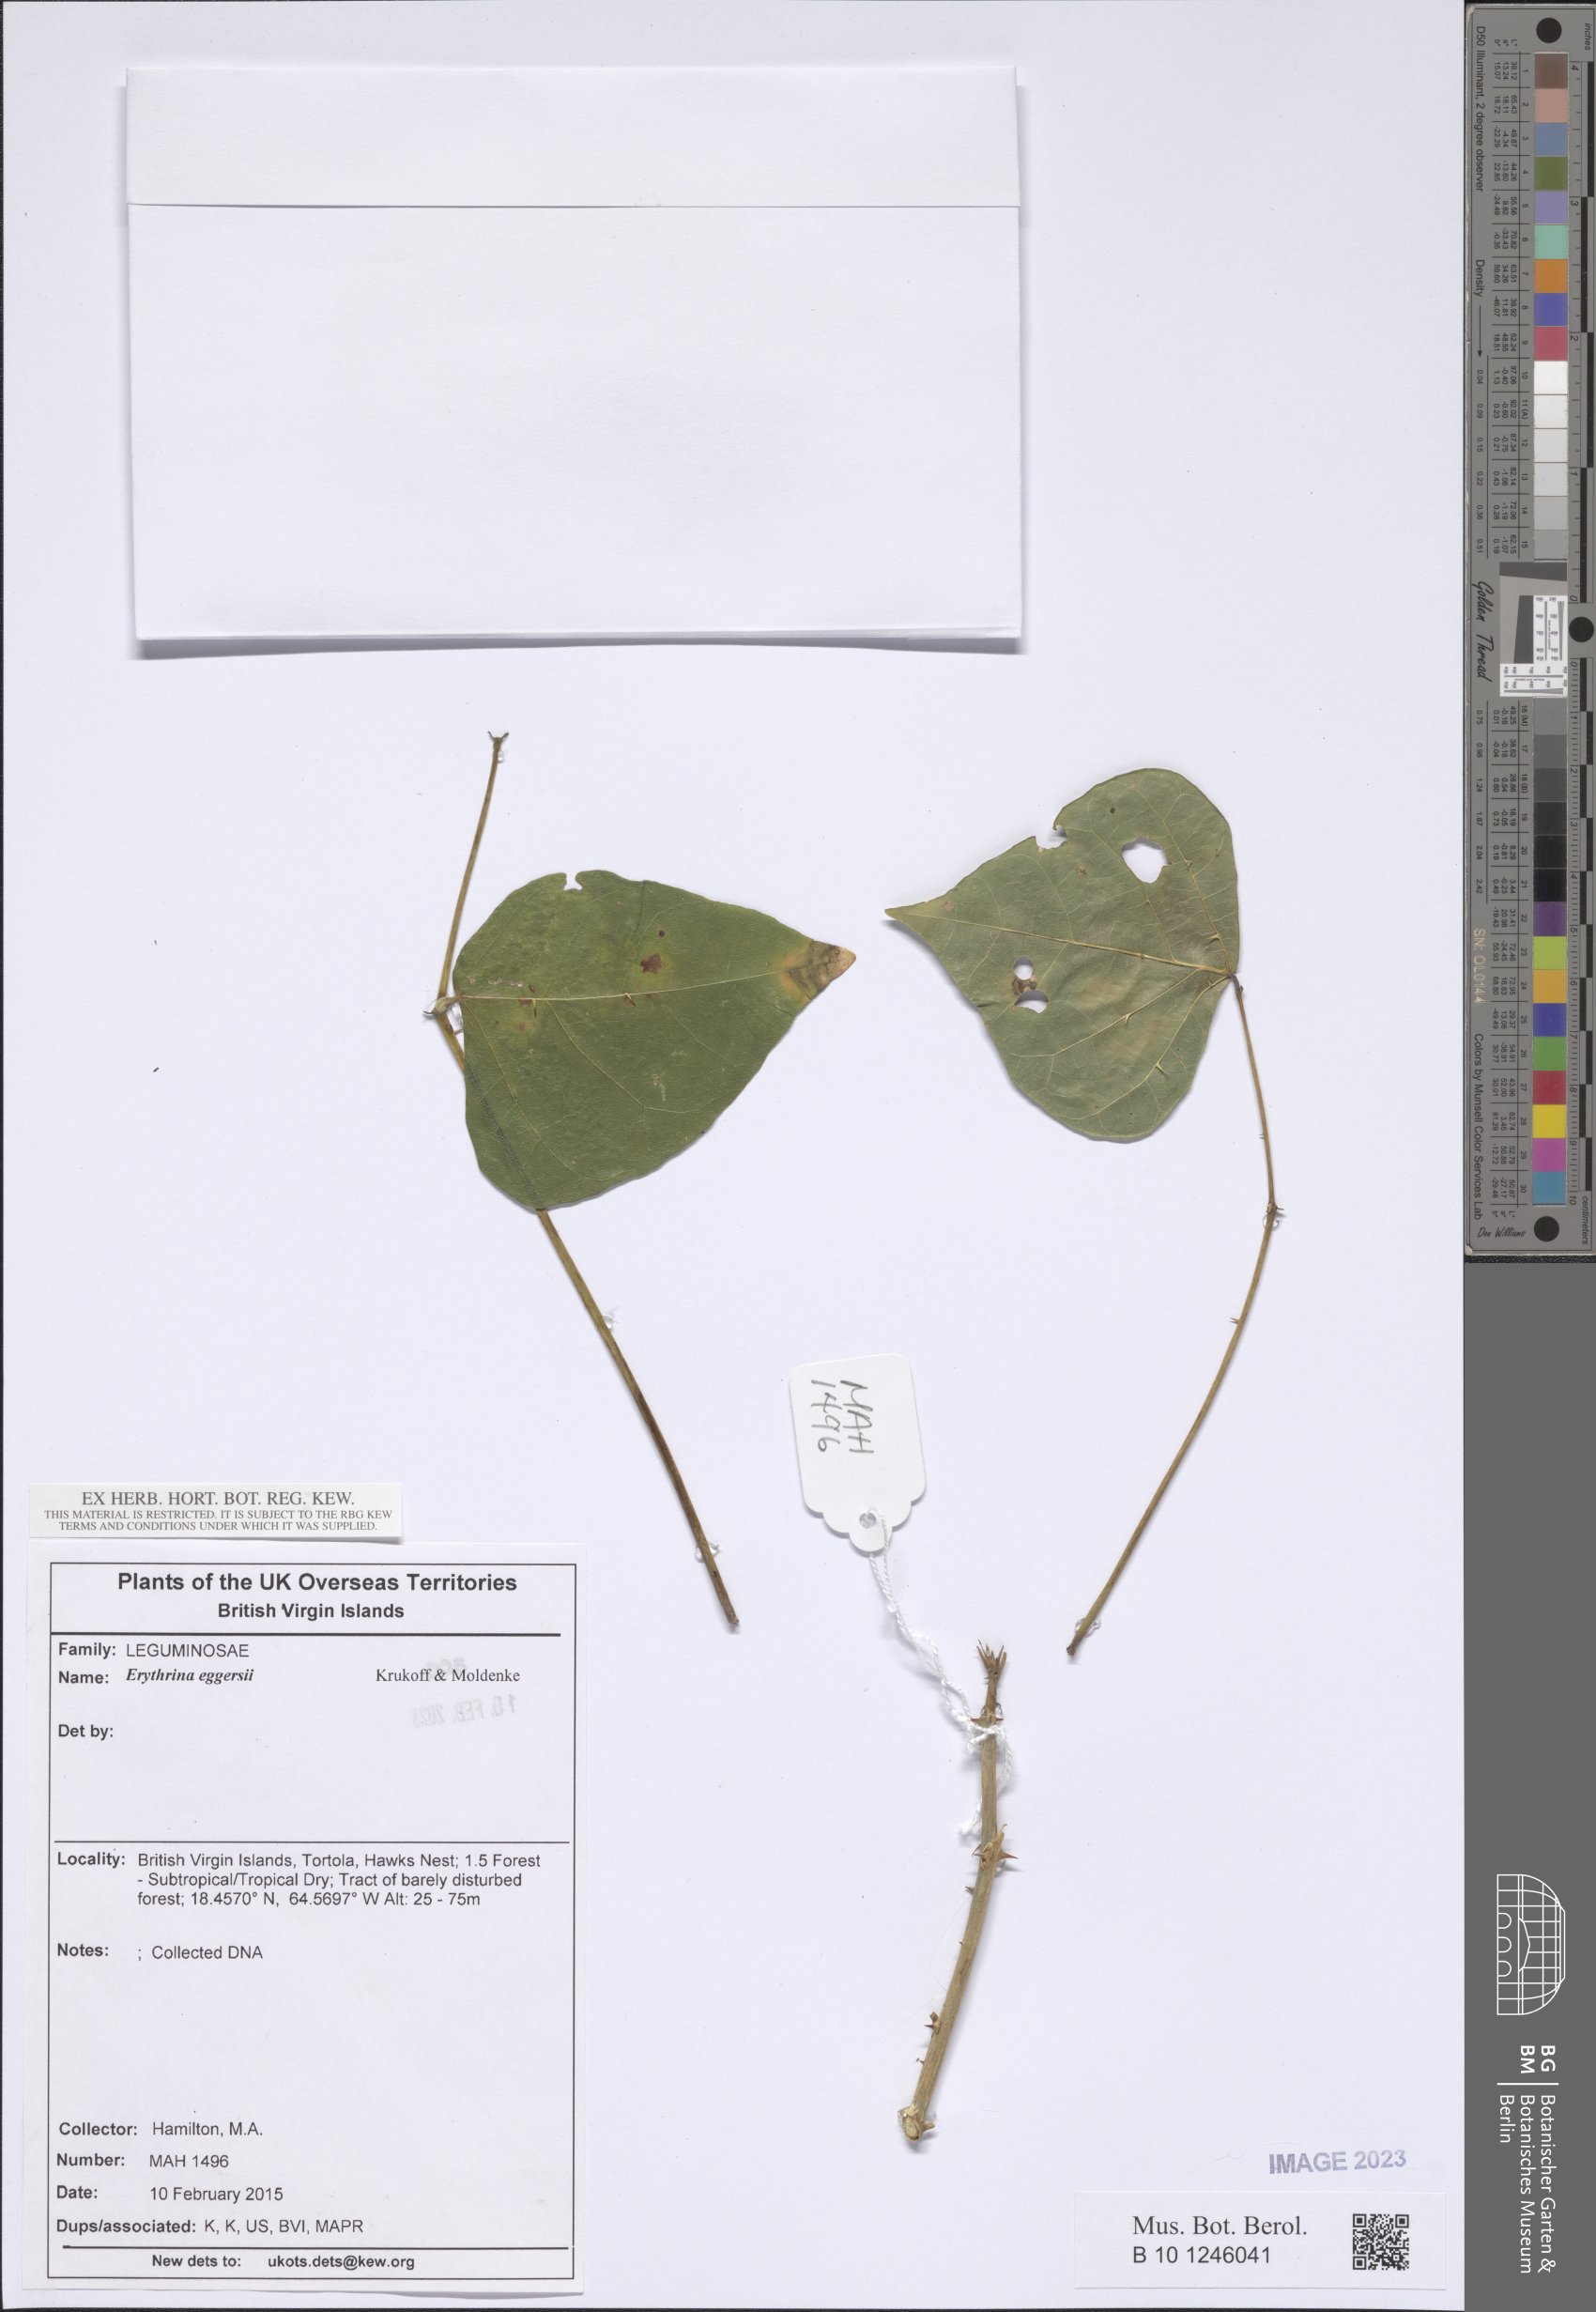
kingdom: Plantae
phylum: Tracheophyta
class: Magnoliopsida
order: Fabales
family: Fabaceae
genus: Erythrina
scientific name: Erythrina eggersii
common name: Cock's-spur
